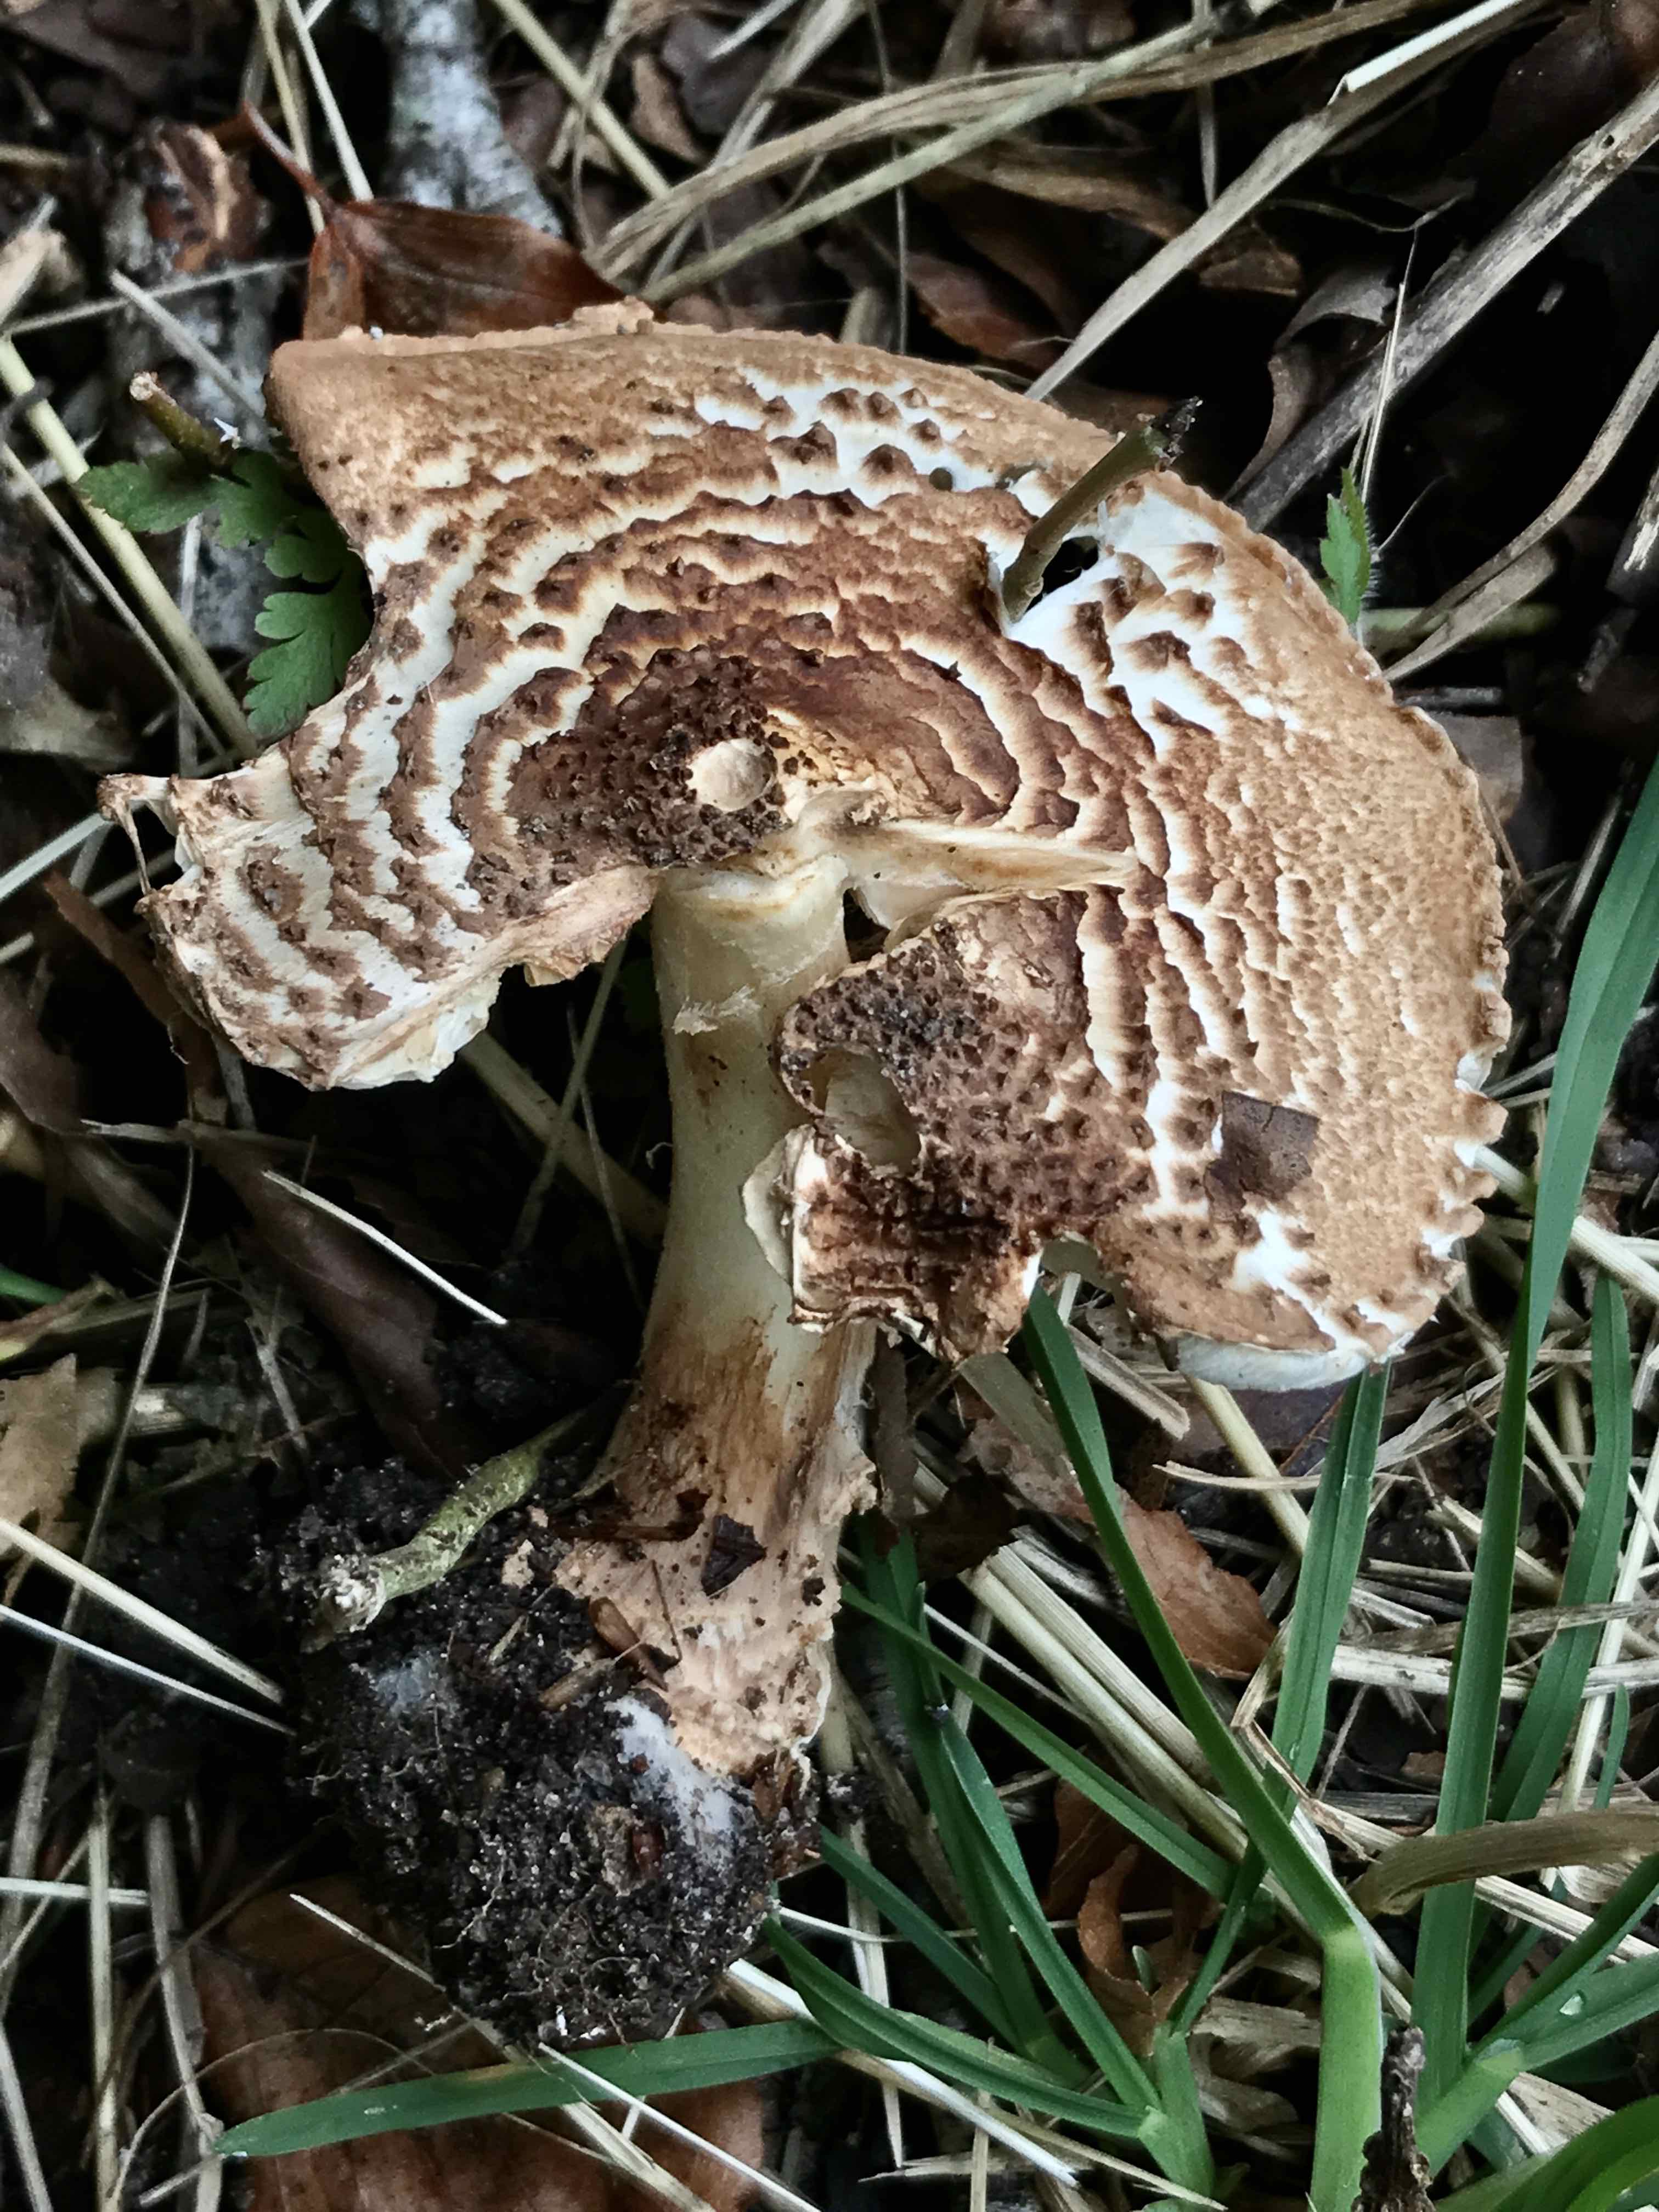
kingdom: Fungi
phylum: Basidiomycota
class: Agaricomycetes
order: Agaricales
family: Agaricaceae
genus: Echinoderma
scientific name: Echinoderma asperum
